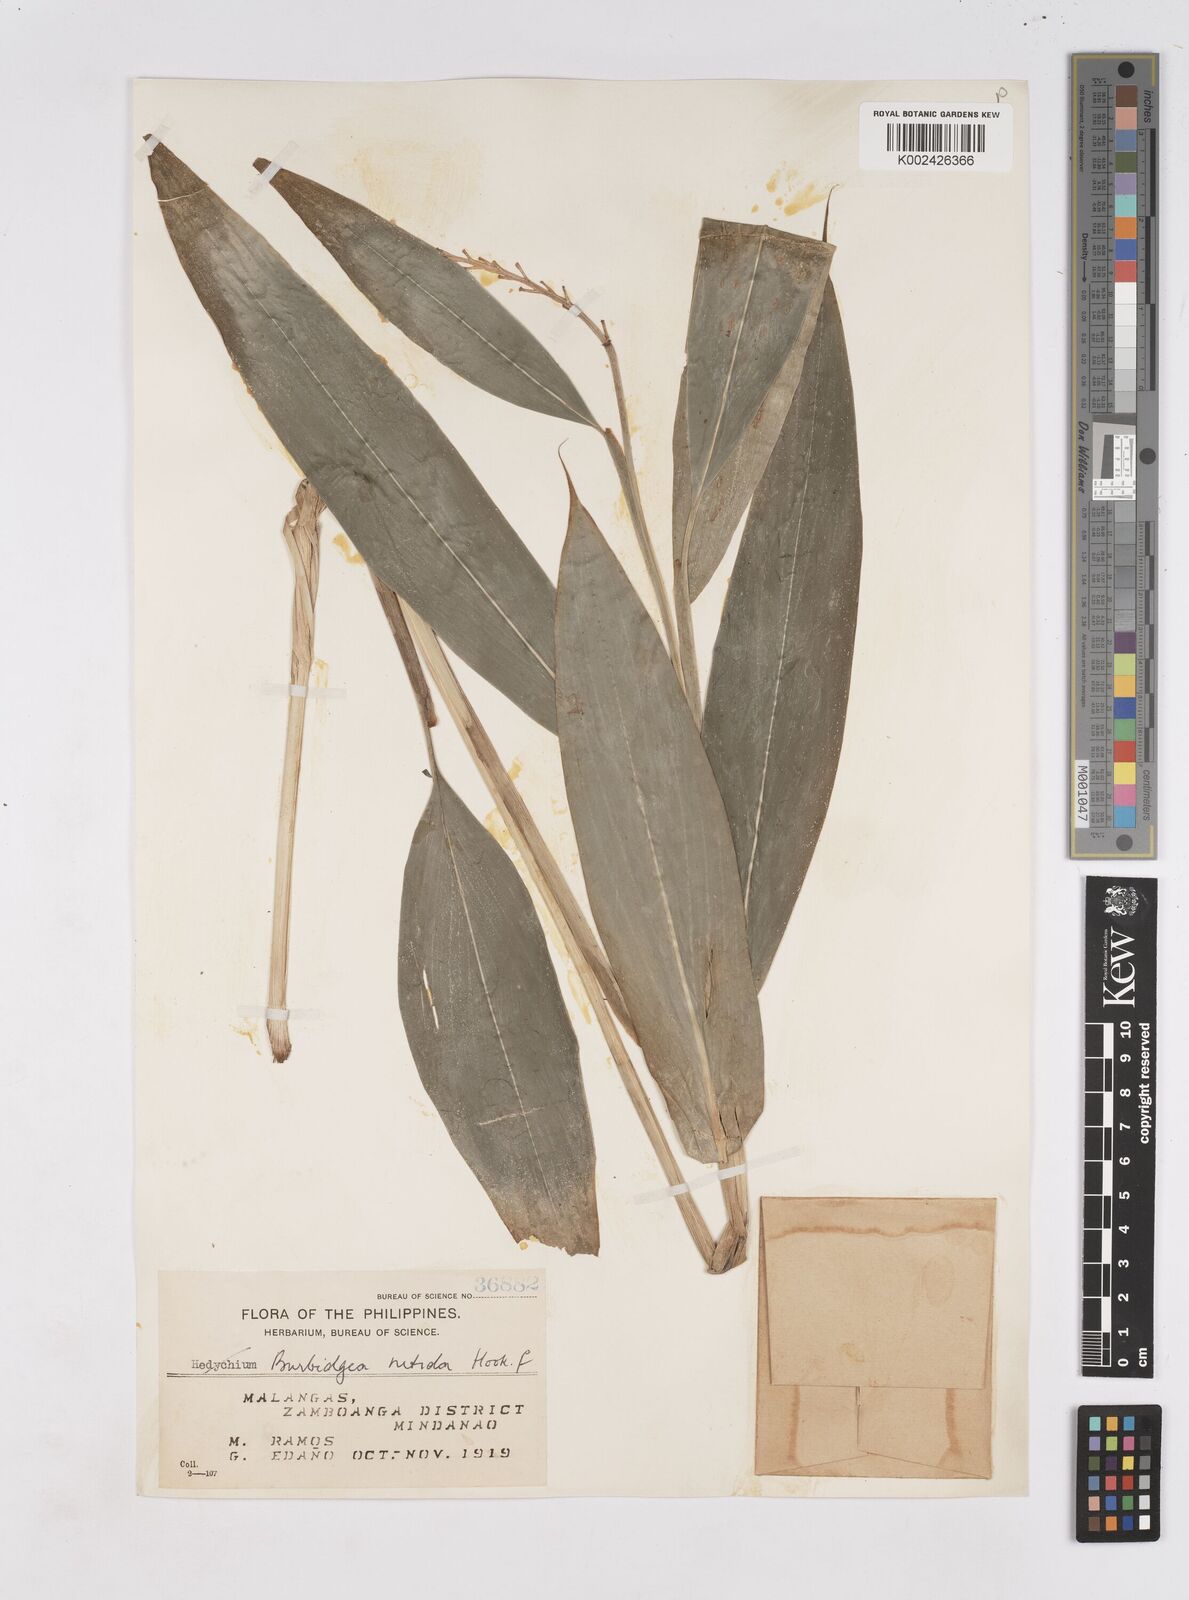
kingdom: Plantae
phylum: Tracheophyta
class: Liliopsida
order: Zingiberales
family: Zingiberaceae
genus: Burbidgea
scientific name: Burbidgea nitida
